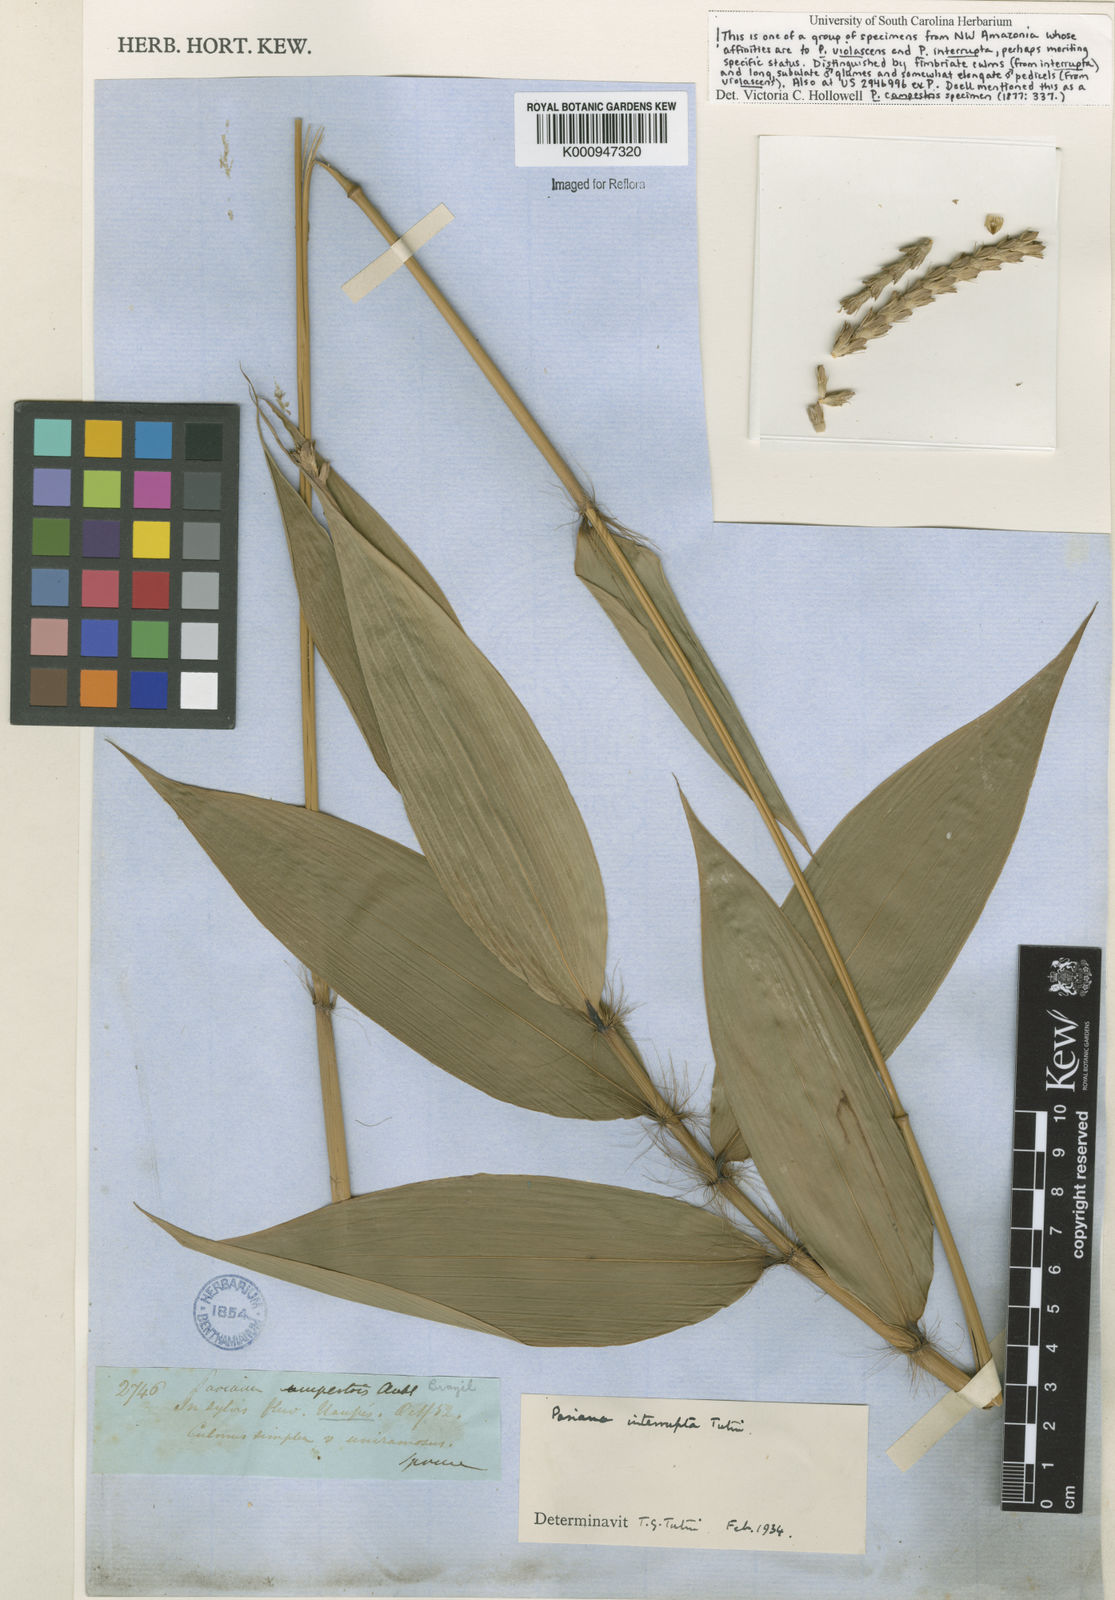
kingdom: Plantae
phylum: Tracheophyta
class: Liliopsida
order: Poales
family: Poaceae
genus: Pariana
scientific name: Pariana interrupta
